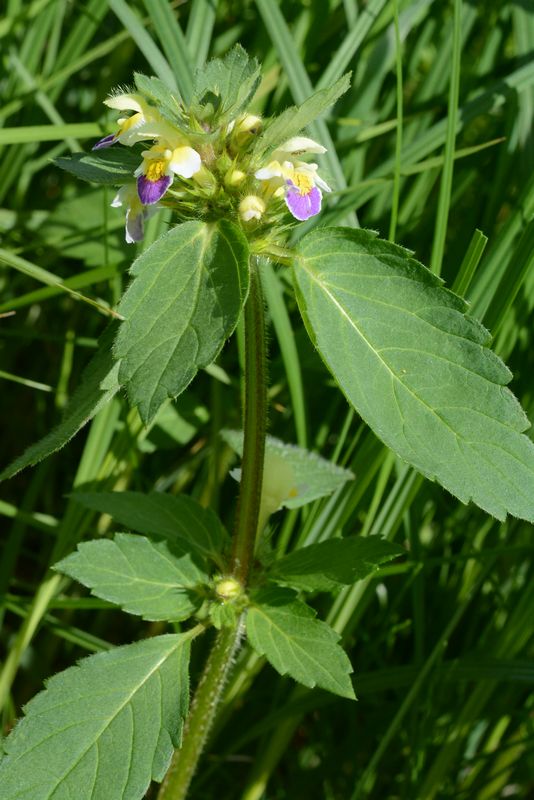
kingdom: Plantae
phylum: Tracheophyta
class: Magnoliopsida
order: Lamiales
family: Lamiaceae
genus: Galeopsis
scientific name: Galeopsis speciosa
